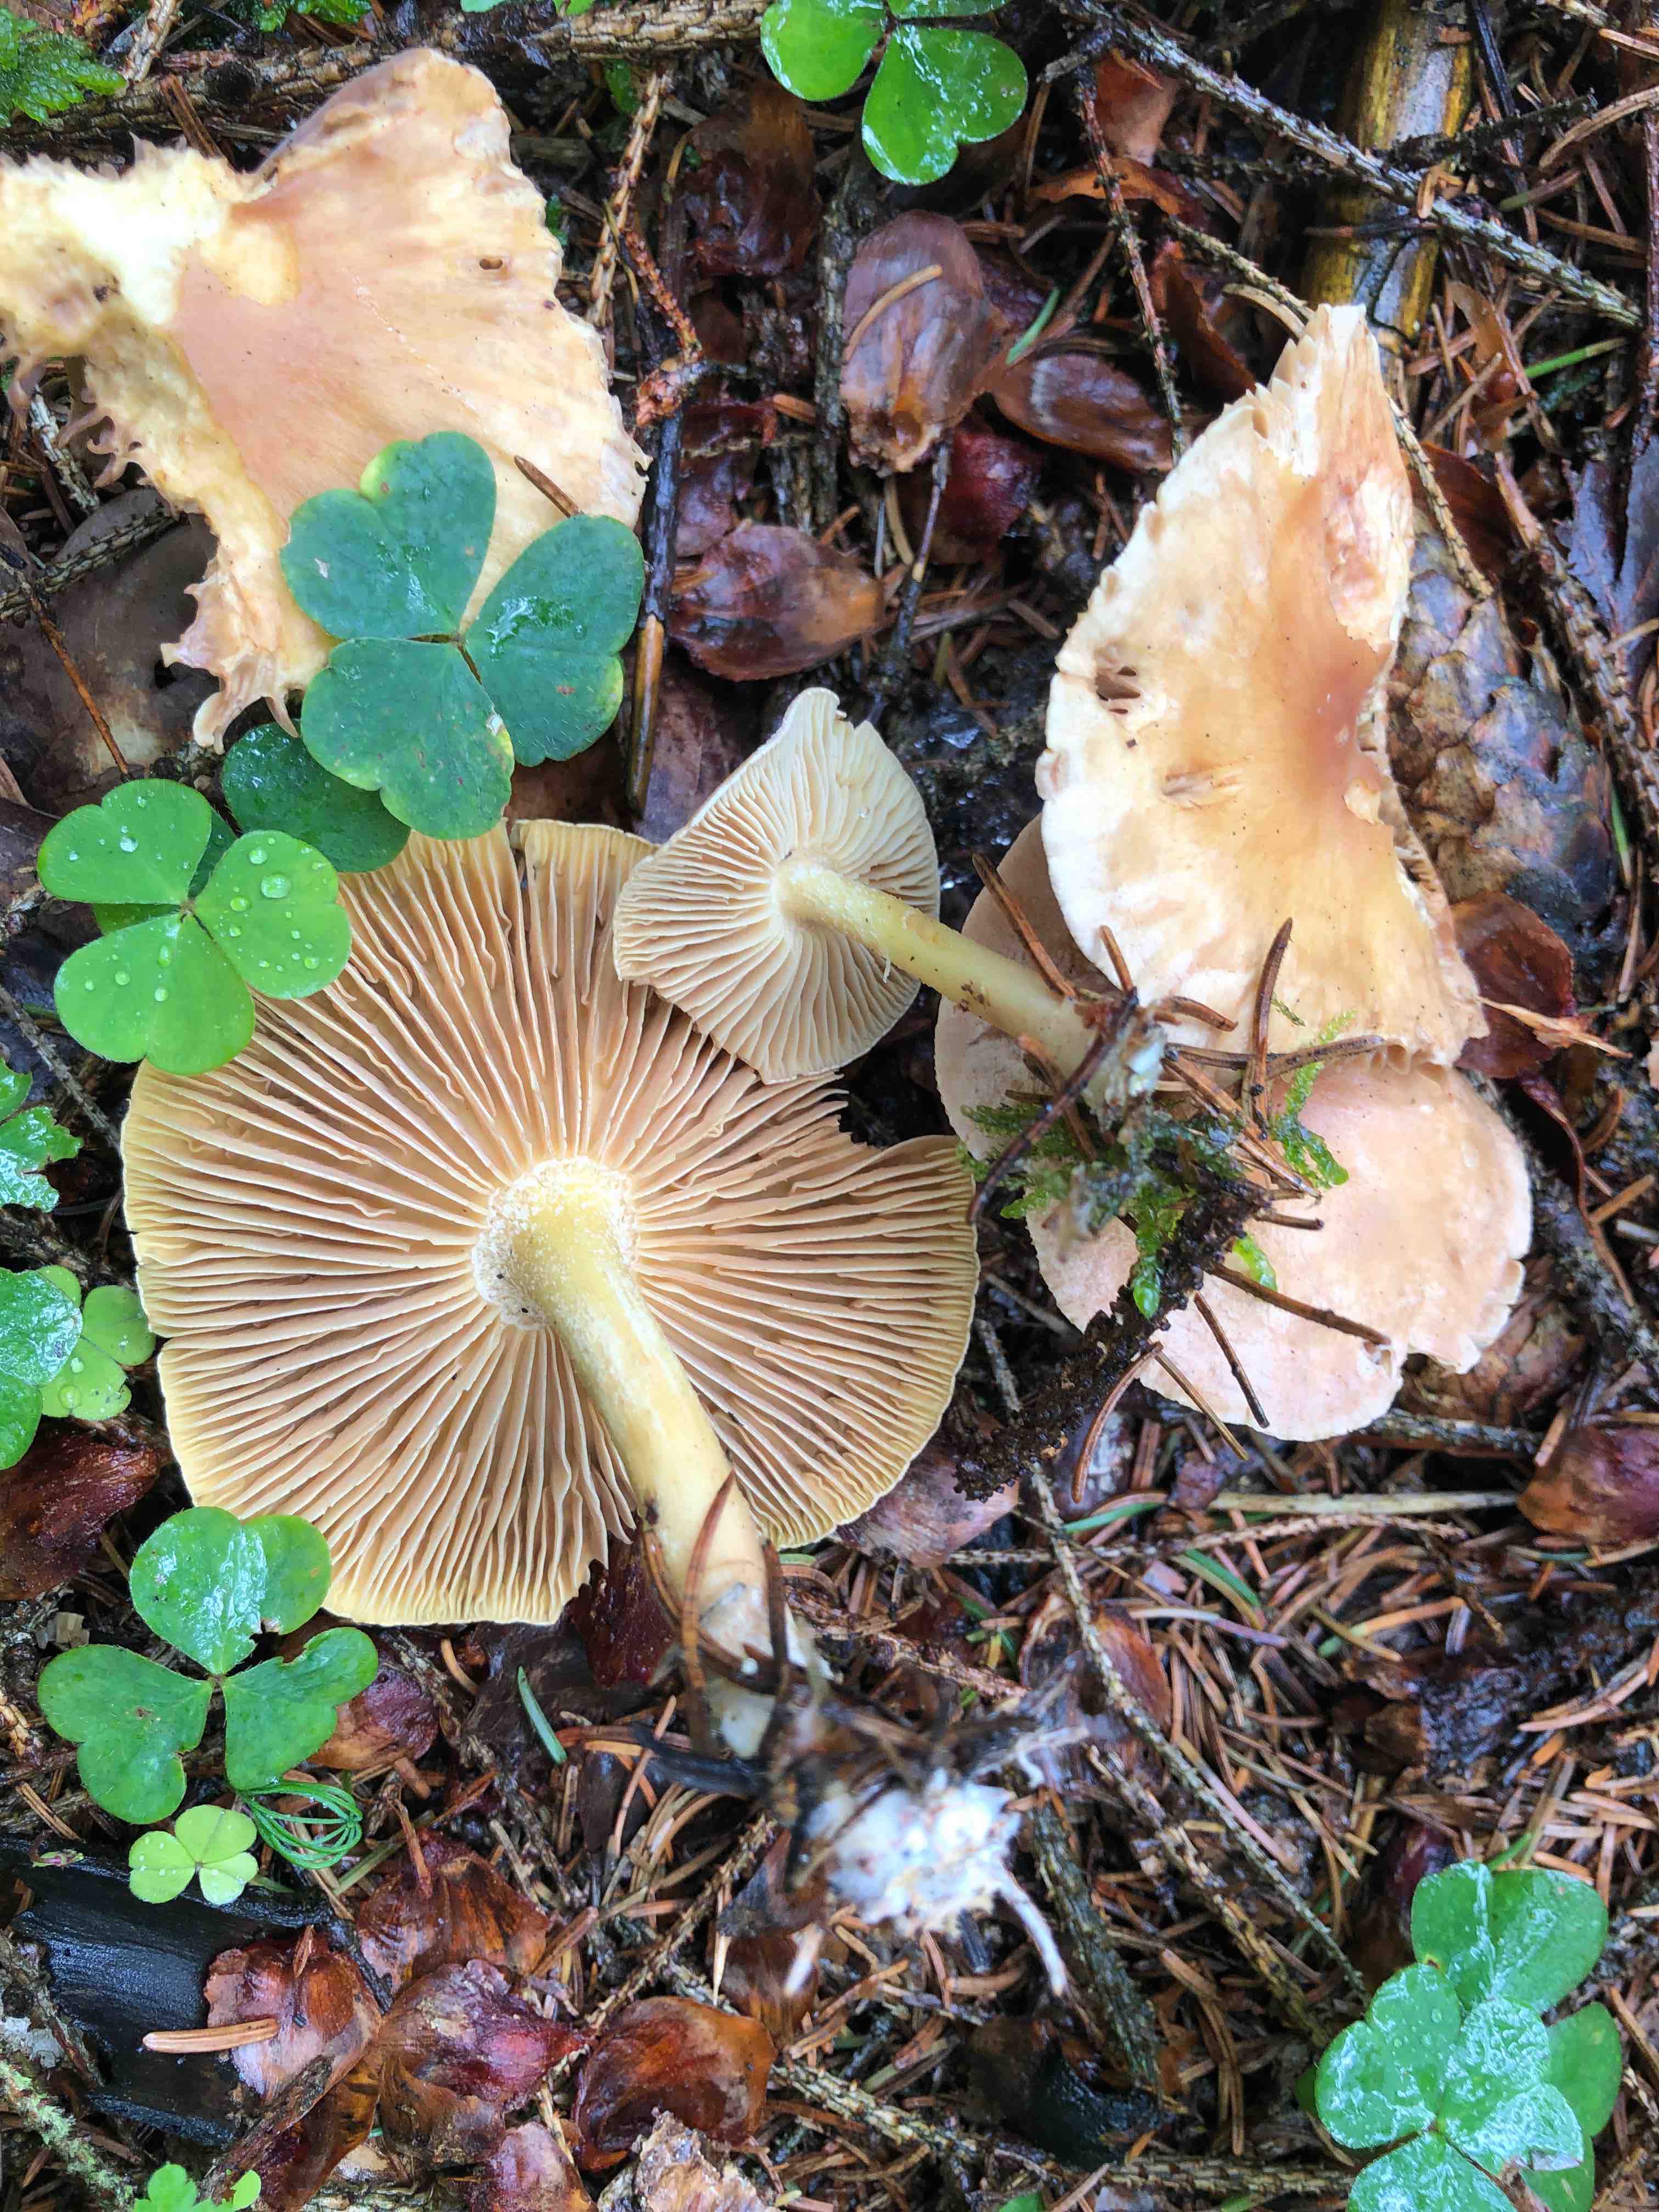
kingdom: Fungi
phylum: Basidiomycota
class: Agaricomycetes
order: Agaricales
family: Omphalotaceae
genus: Collybiopsis
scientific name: Collybiopsis peronata
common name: bestøvlet fladhat
